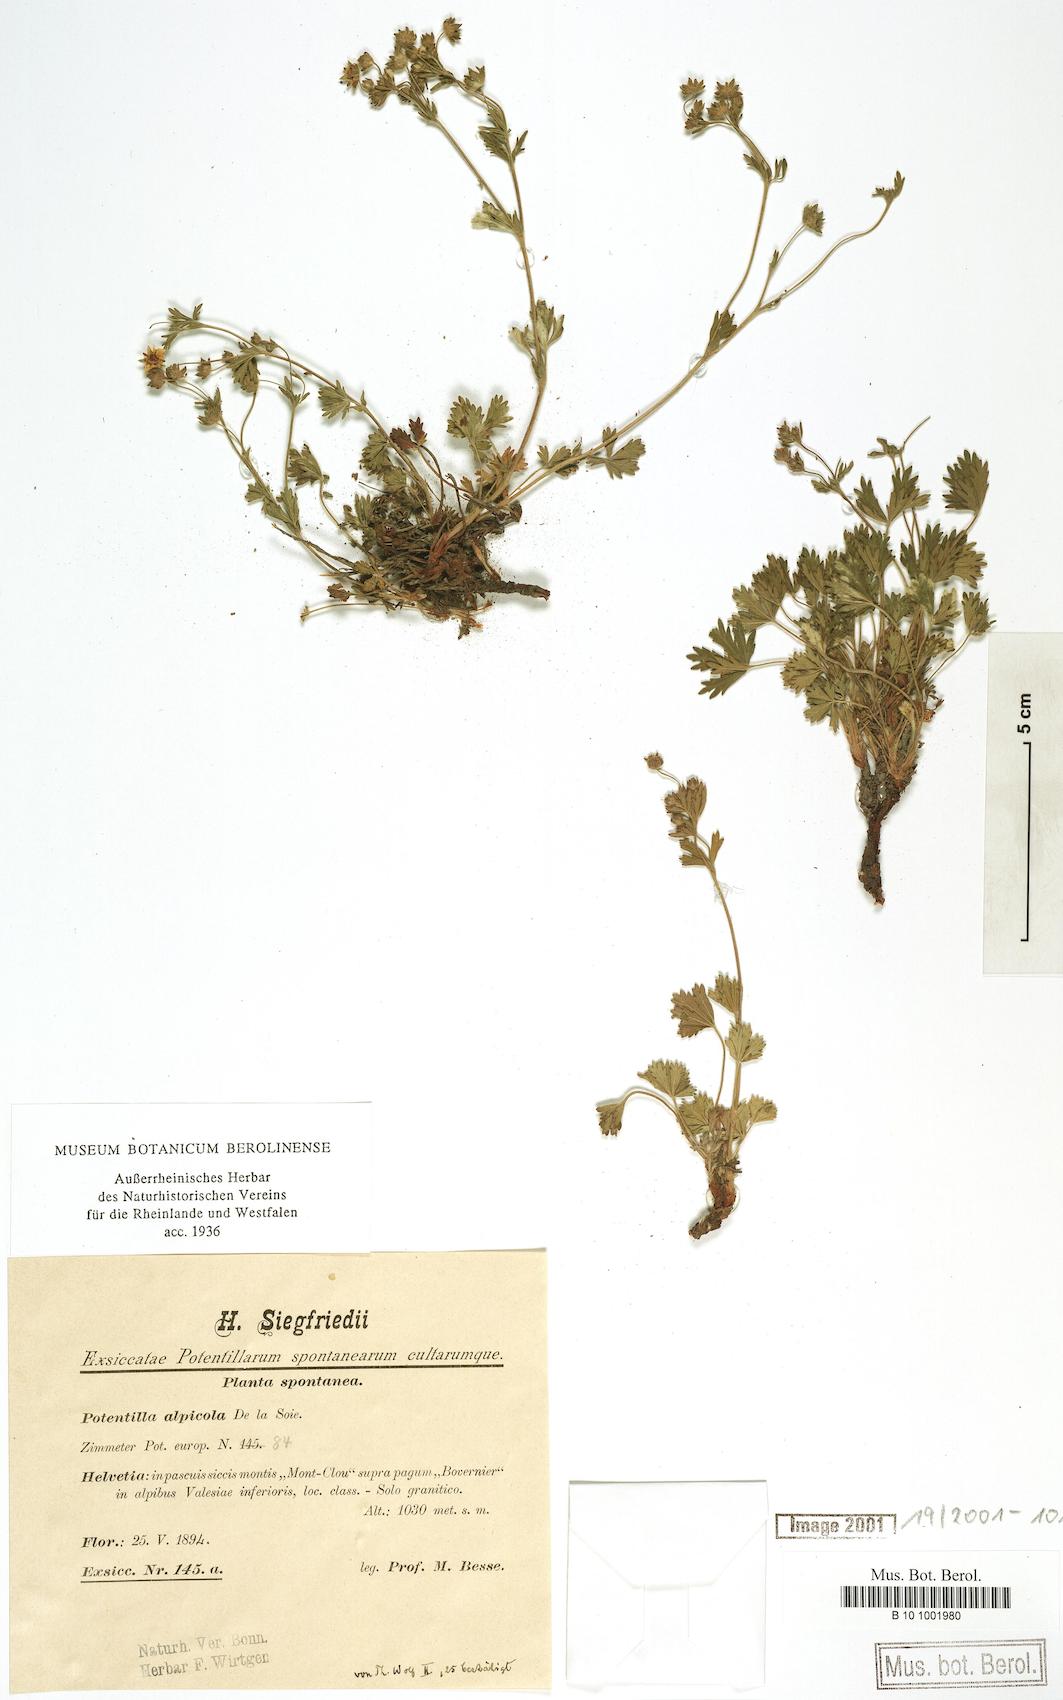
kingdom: Plantae
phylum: Tracheophyta
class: Magnoliopsida
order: Rosales
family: Rosaceae
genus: Potentilla
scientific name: Potentilla alpicola
